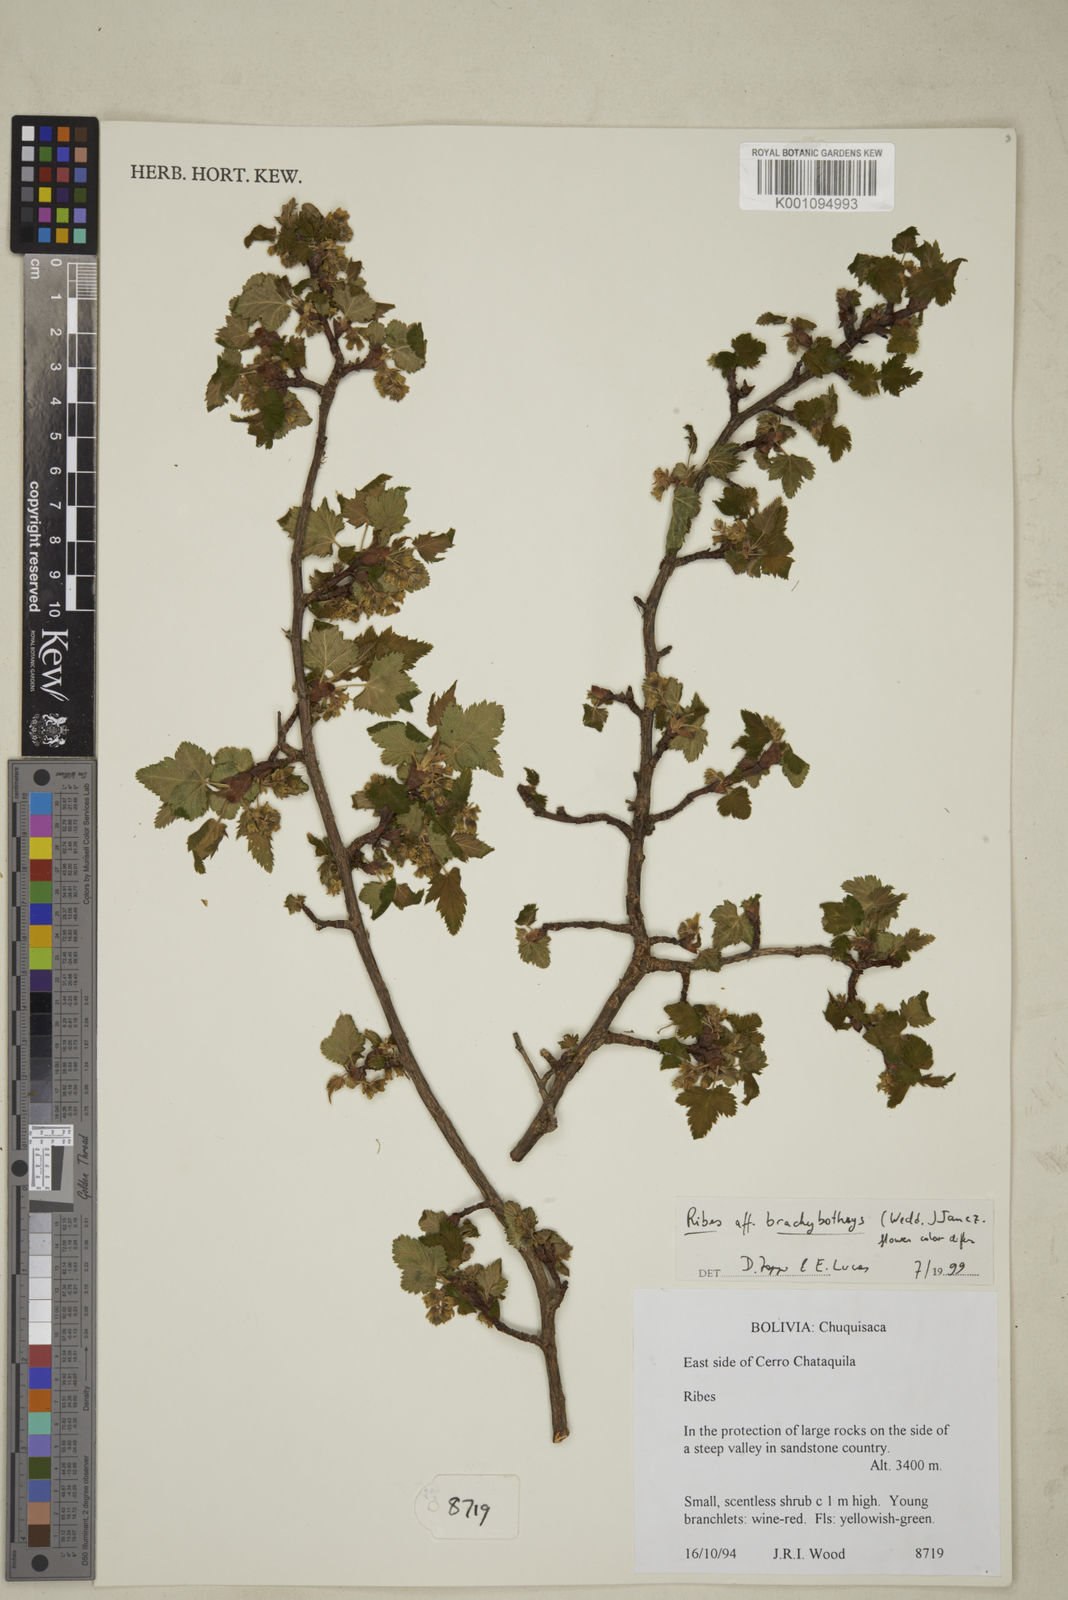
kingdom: Plantae
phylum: Tracheophyta
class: Magnoliopsida
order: Saxifragales
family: Grossulariaceae
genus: Ribes
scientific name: Ribes brachybotrys
